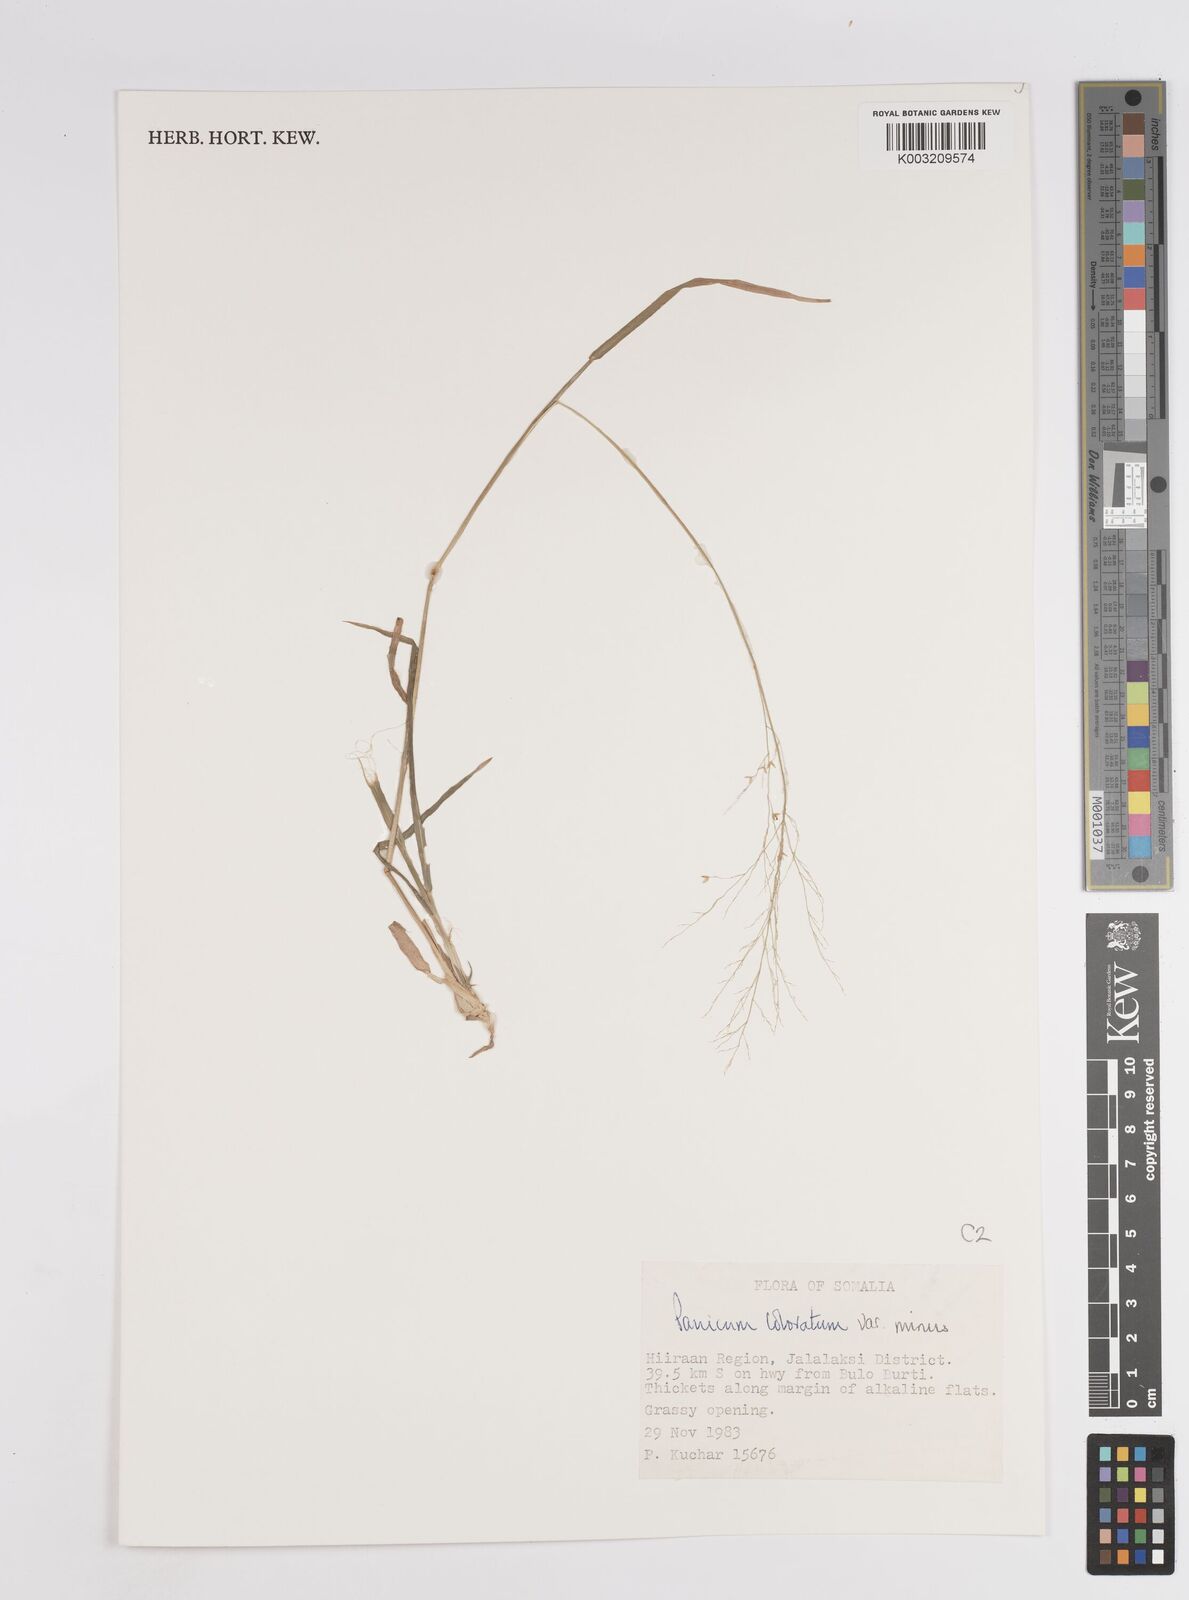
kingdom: Plantae
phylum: Tracheophyta
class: Liliopsida
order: Poales
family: Poaceae
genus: Panicum
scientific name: Panicum coloratum
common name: Kleingrass
